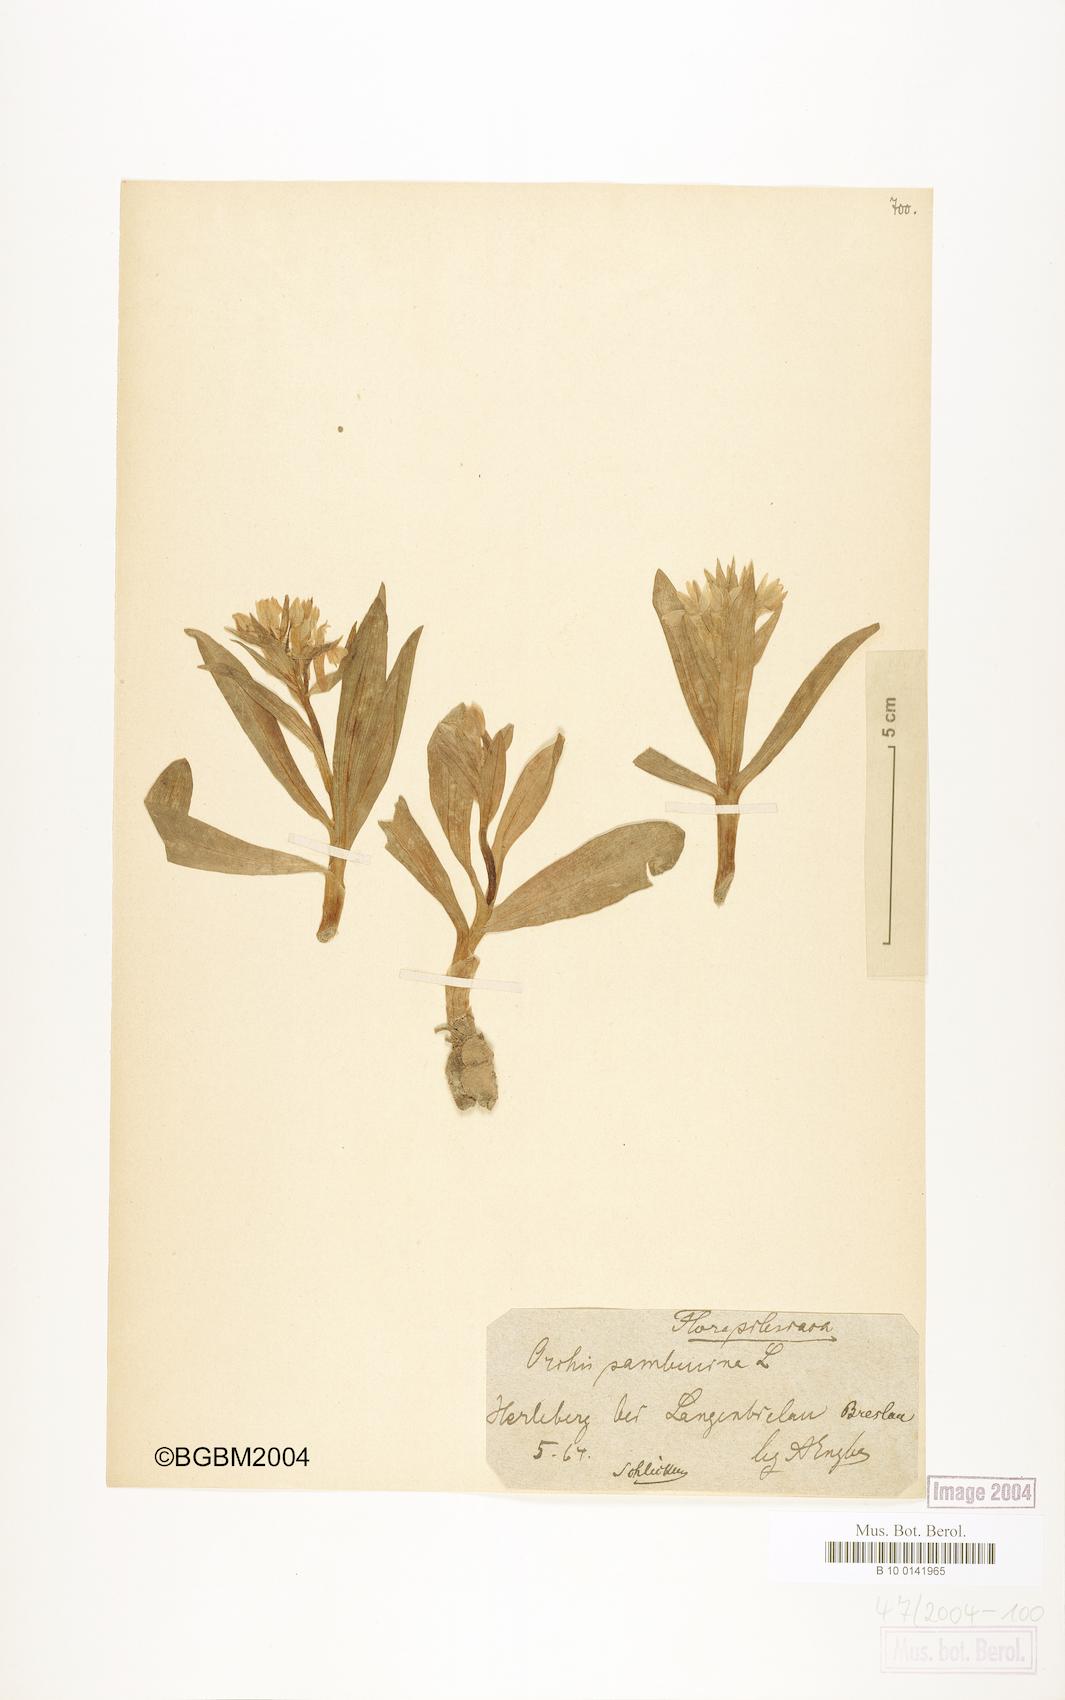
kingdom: Plantae
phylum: Tracheophyta
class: Liliopsida
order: Asparagales
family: Orchidaceae
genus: Dactylorhiza
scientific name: Dactylorhiza sambucina
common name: Elder-flowered orchid
